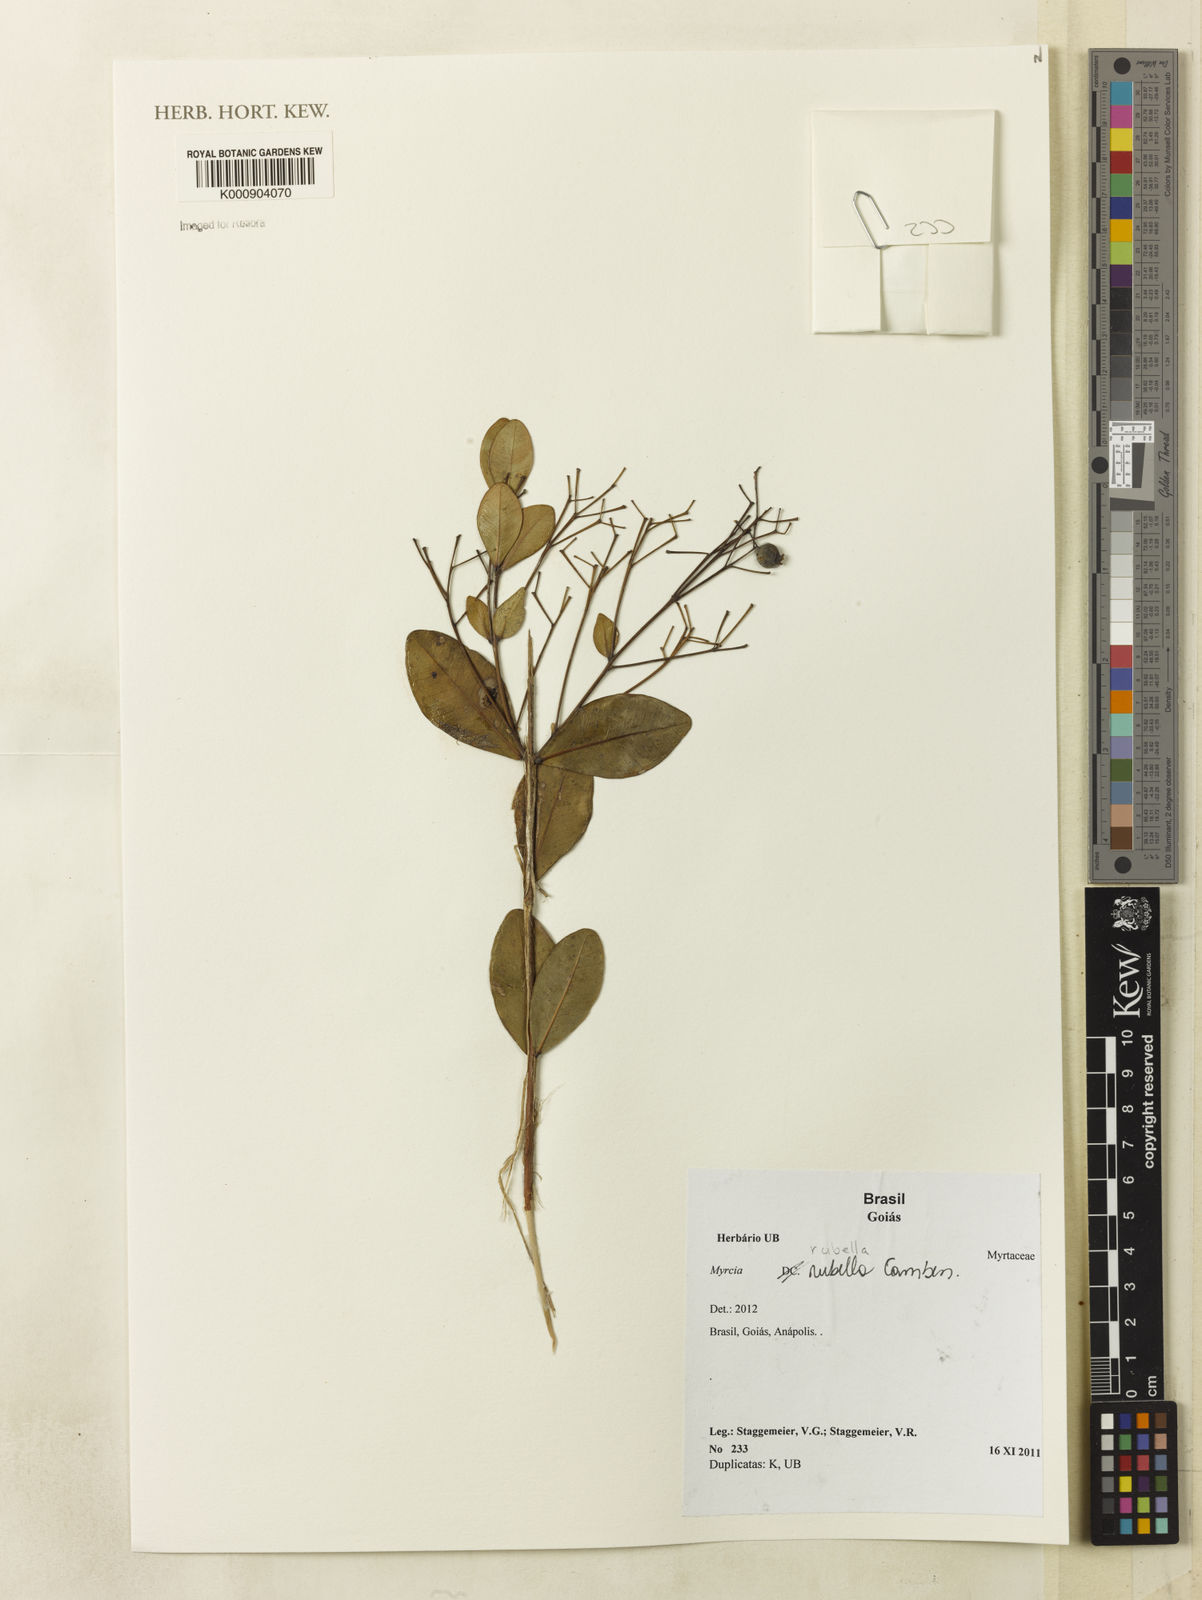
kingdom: Plantae
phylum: Tracheophyta
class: Magnoliopsida
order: Myrtales
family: Myrtaceae
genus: Myrcia
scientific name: Myrcia guianensis
